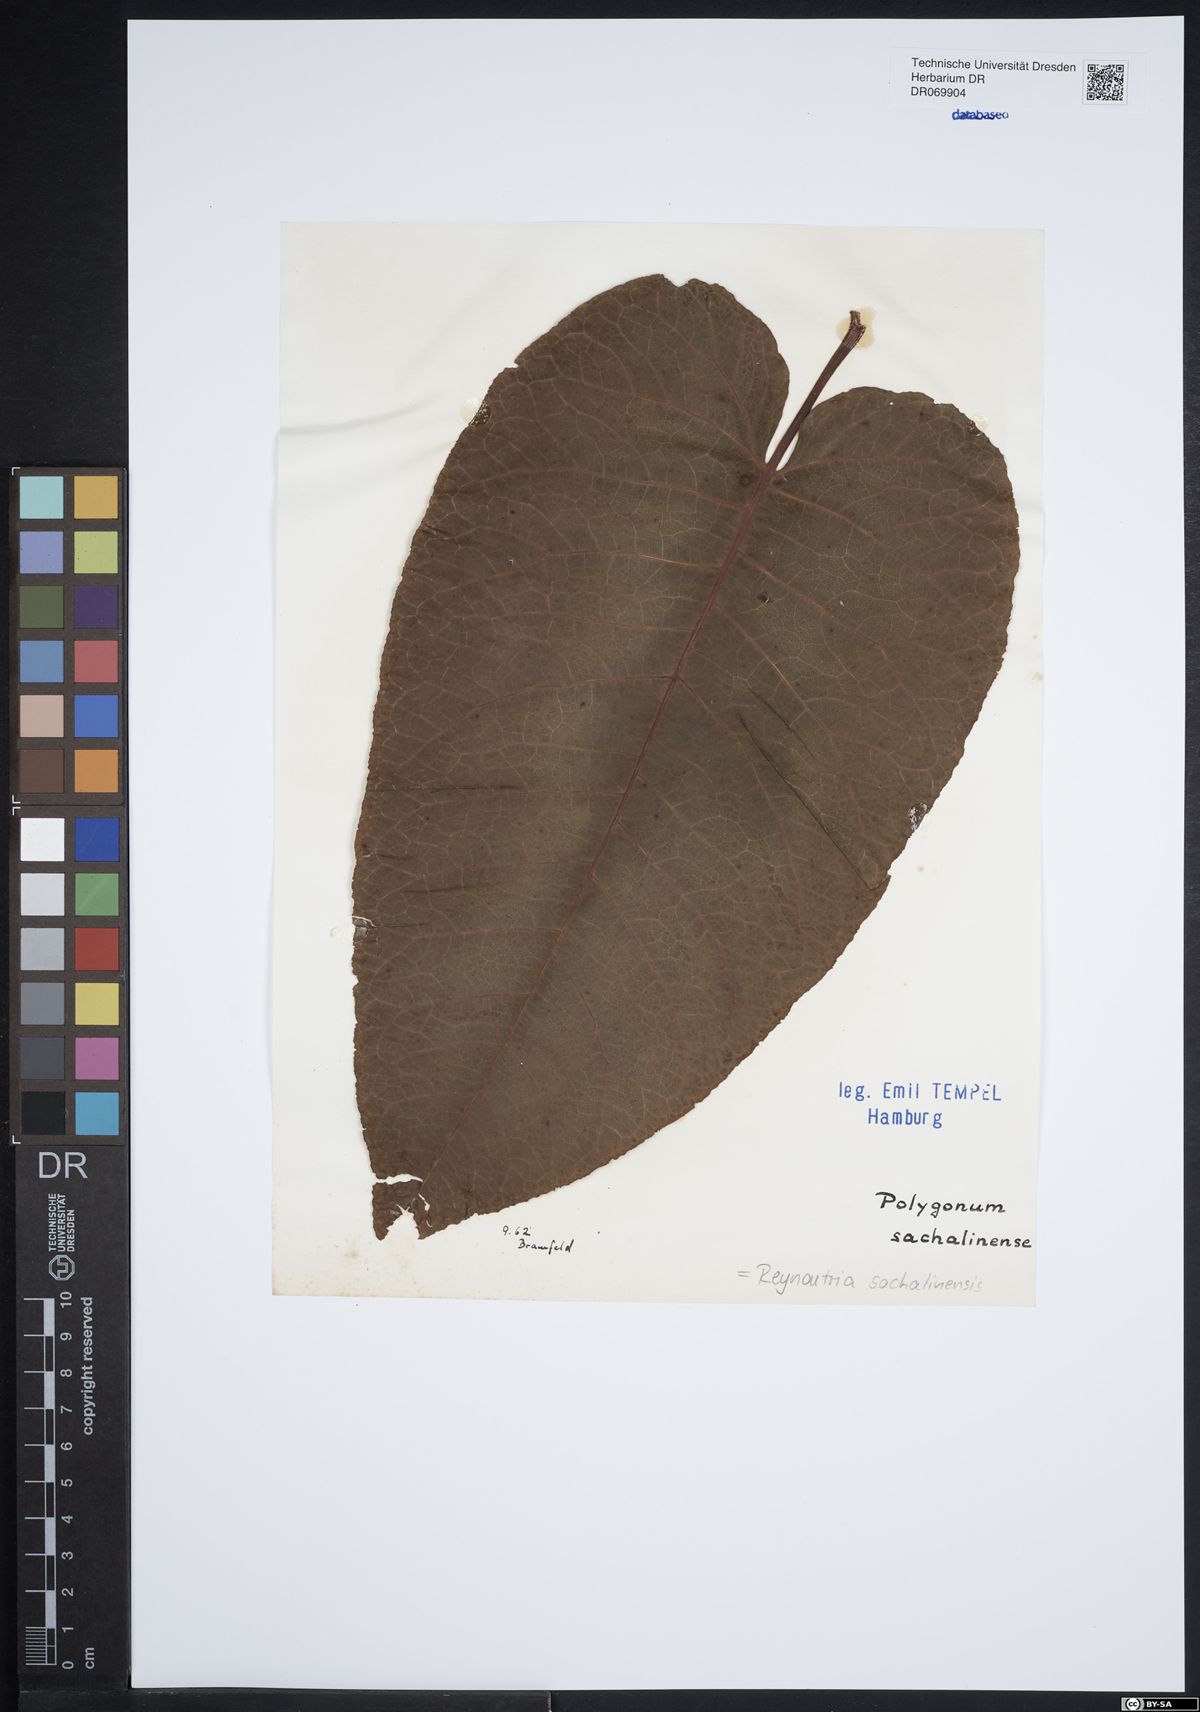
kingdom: Plantae
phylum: Tracheophyta
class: Magnoliopsida
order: Caryophyllales
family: Polygonaceae
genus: Reynoutria
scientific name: Reynoutria sachalinensis
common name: Giant knotweed
